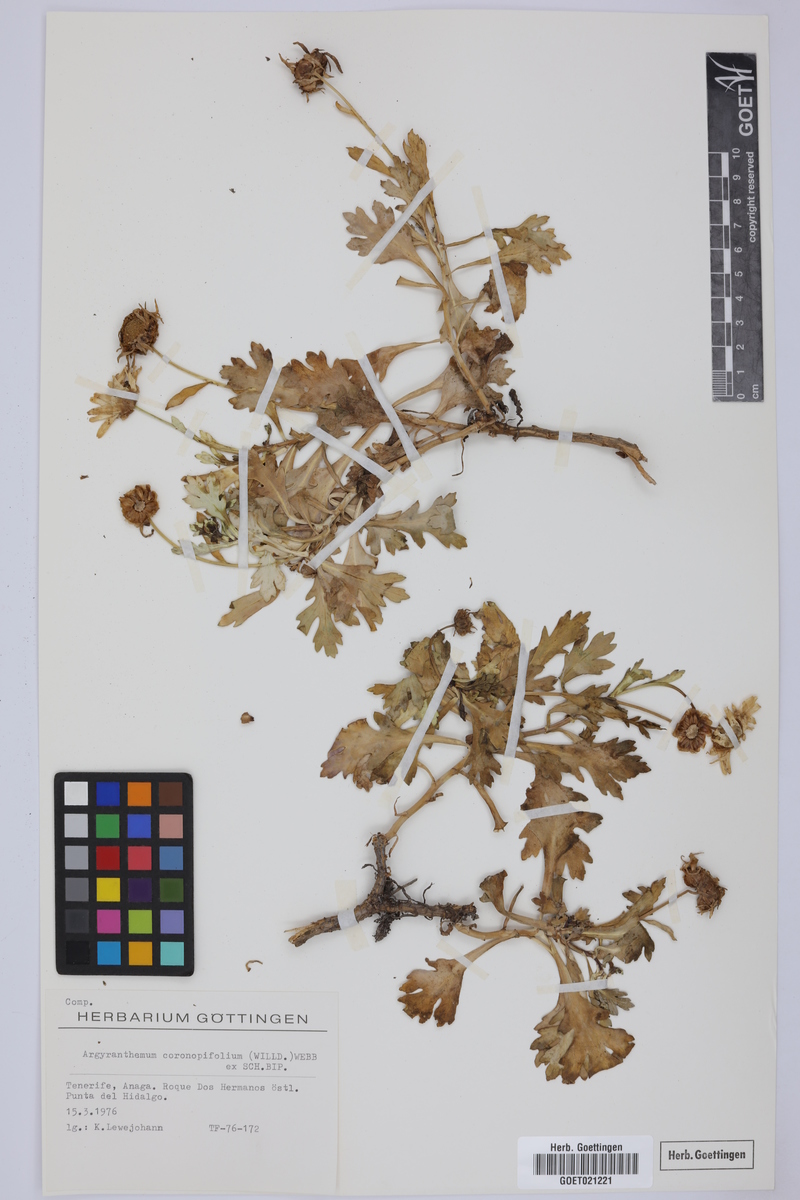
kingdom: Plantae
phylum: Tracheophyta
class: Magnoliopsida
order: Asterales
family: Asteraceae
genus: Argyranthemum
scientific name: Argyranthemum coronopifolium
